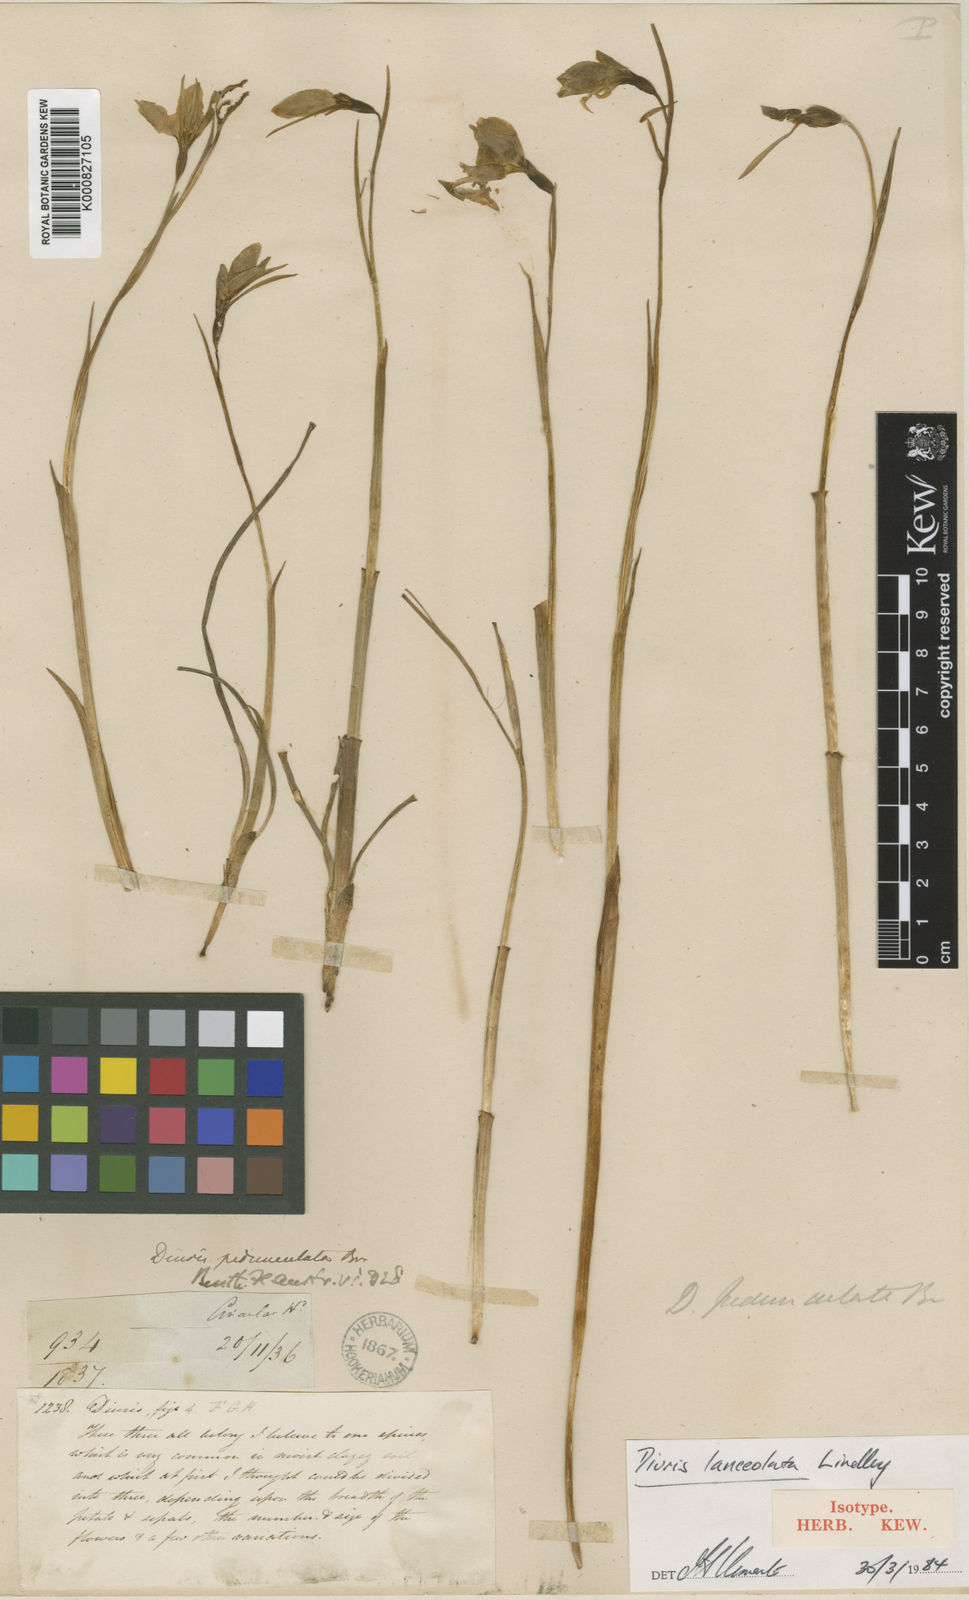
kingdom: Plantae
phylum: Tracheophyta
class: Liliopsida
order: Asparagales
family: Orchidaceae
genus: Diuris
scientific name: Diuris lanceolata
